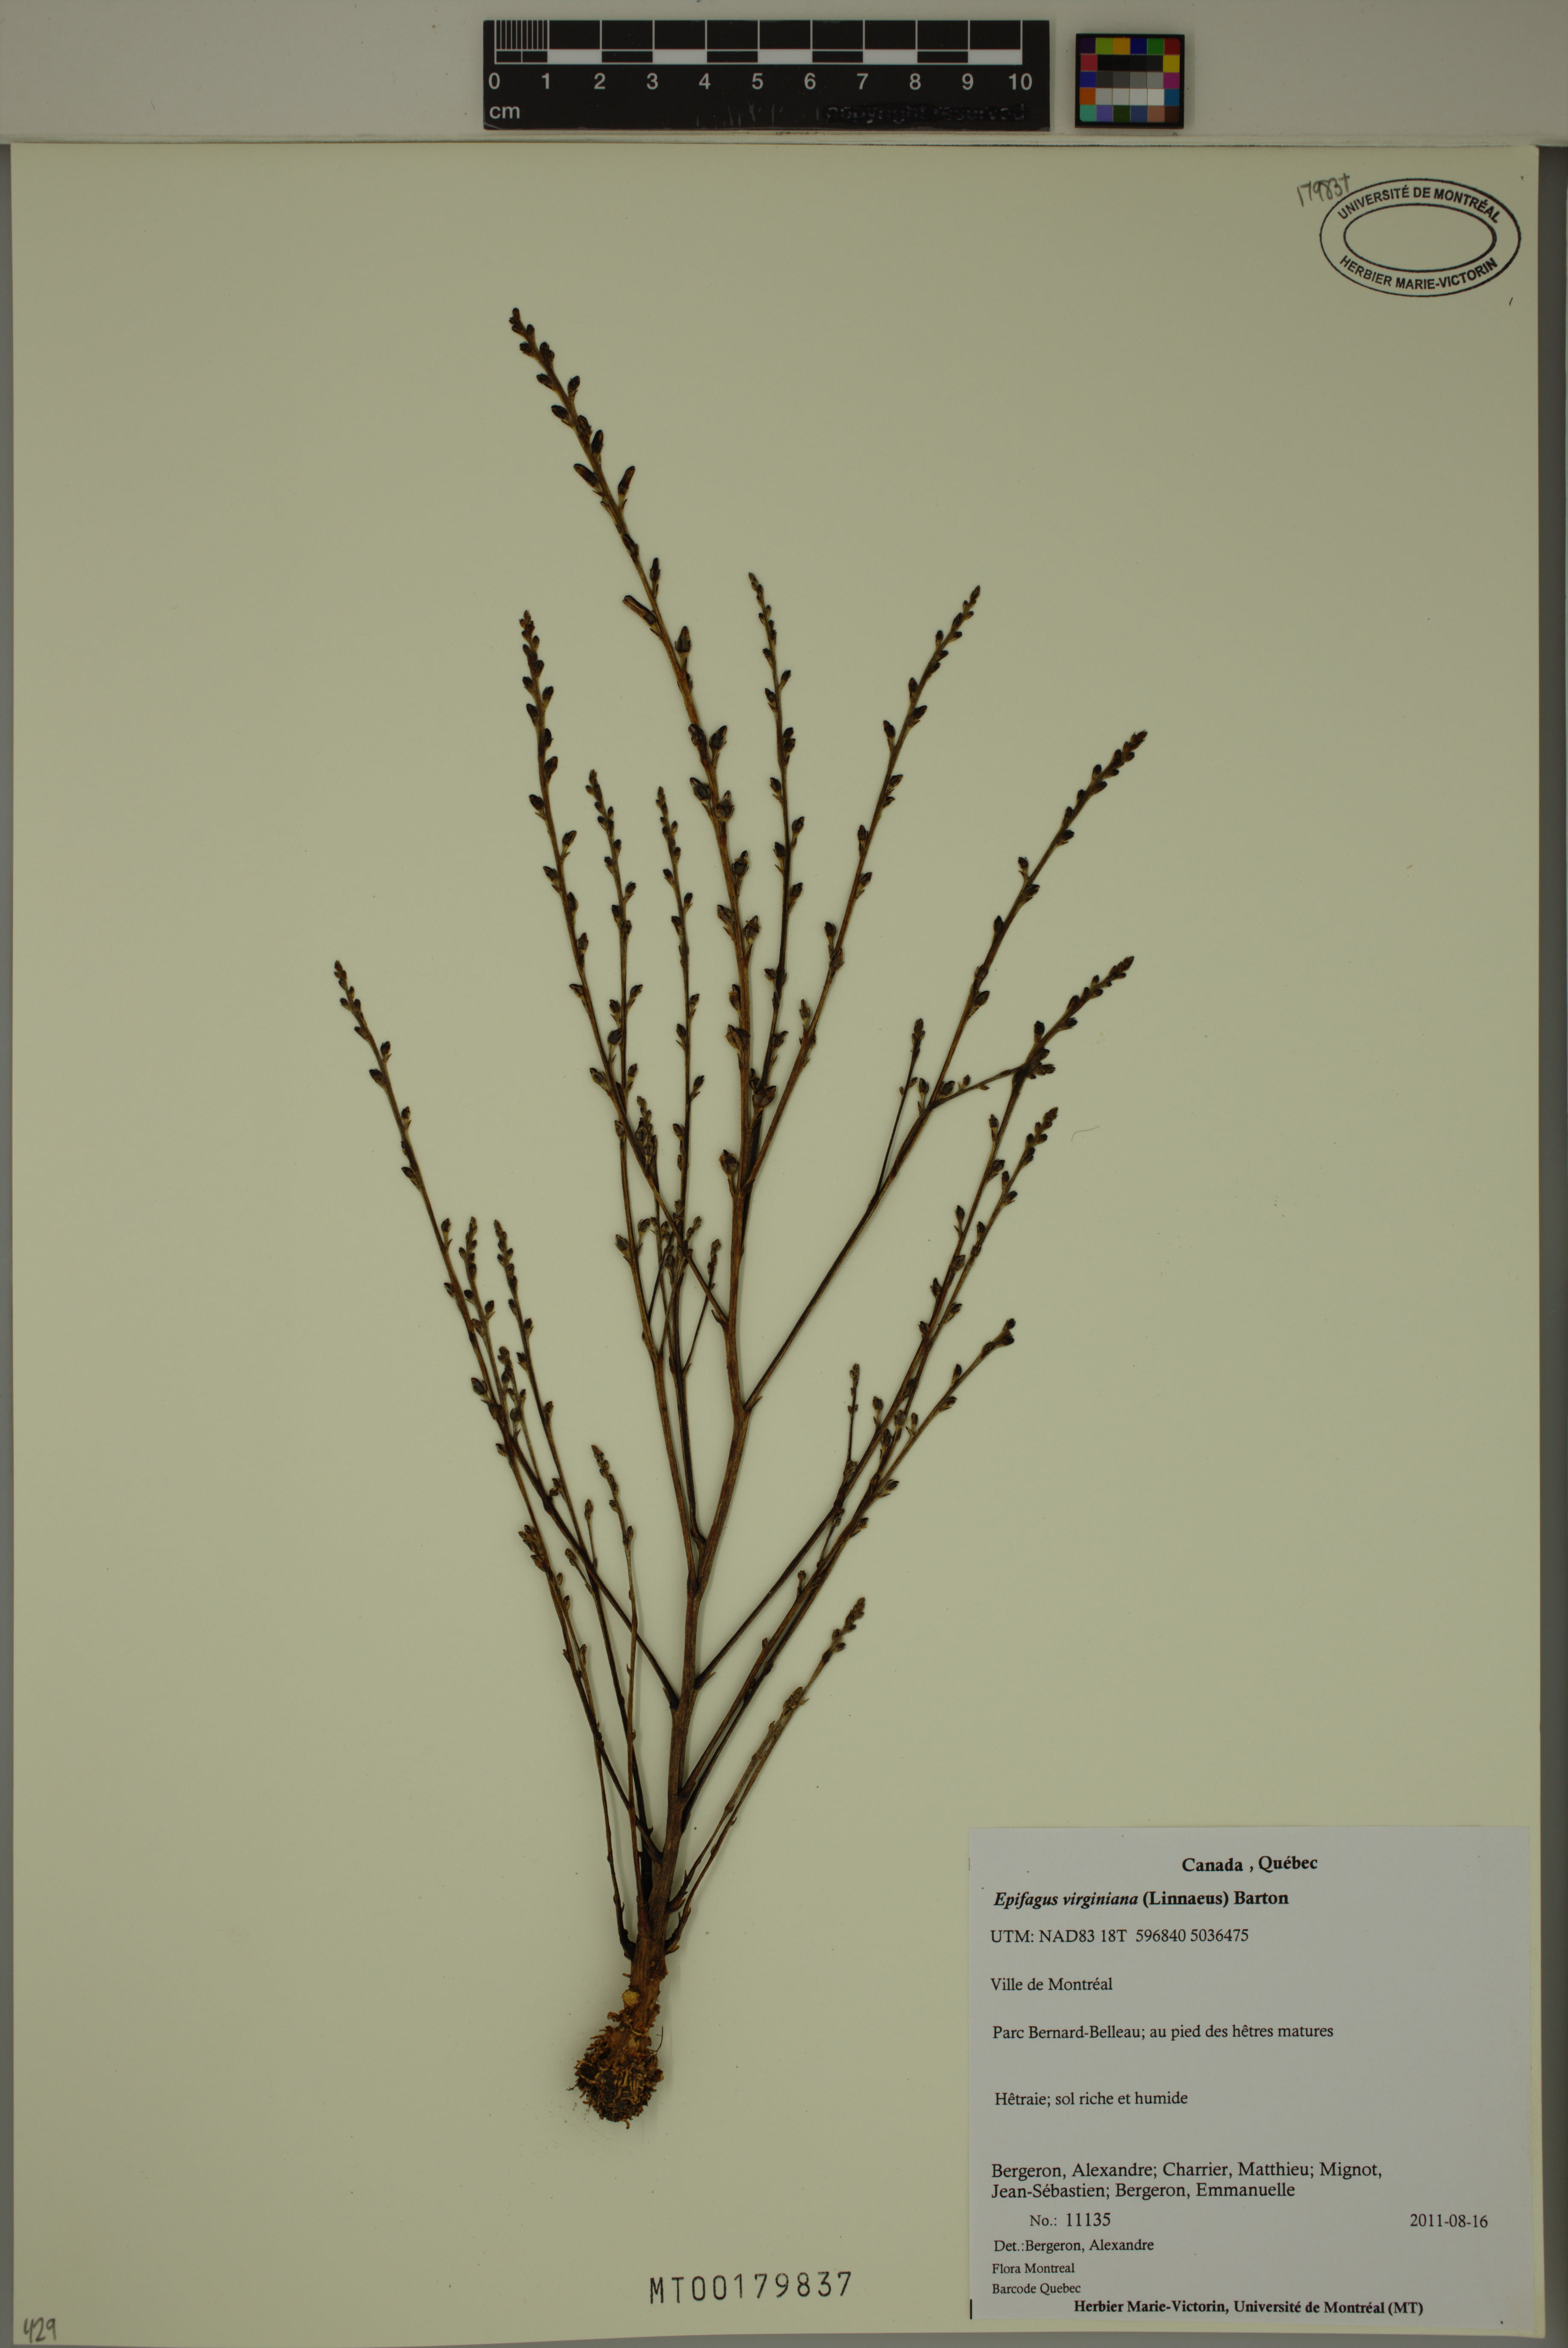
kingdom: Plantae
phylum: Tracheophyta
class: Magnoliopsida
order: Lamiales
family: Orobanchaceae
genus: Epifagus
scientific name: Epifagus virginiana
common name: Beechdrops
